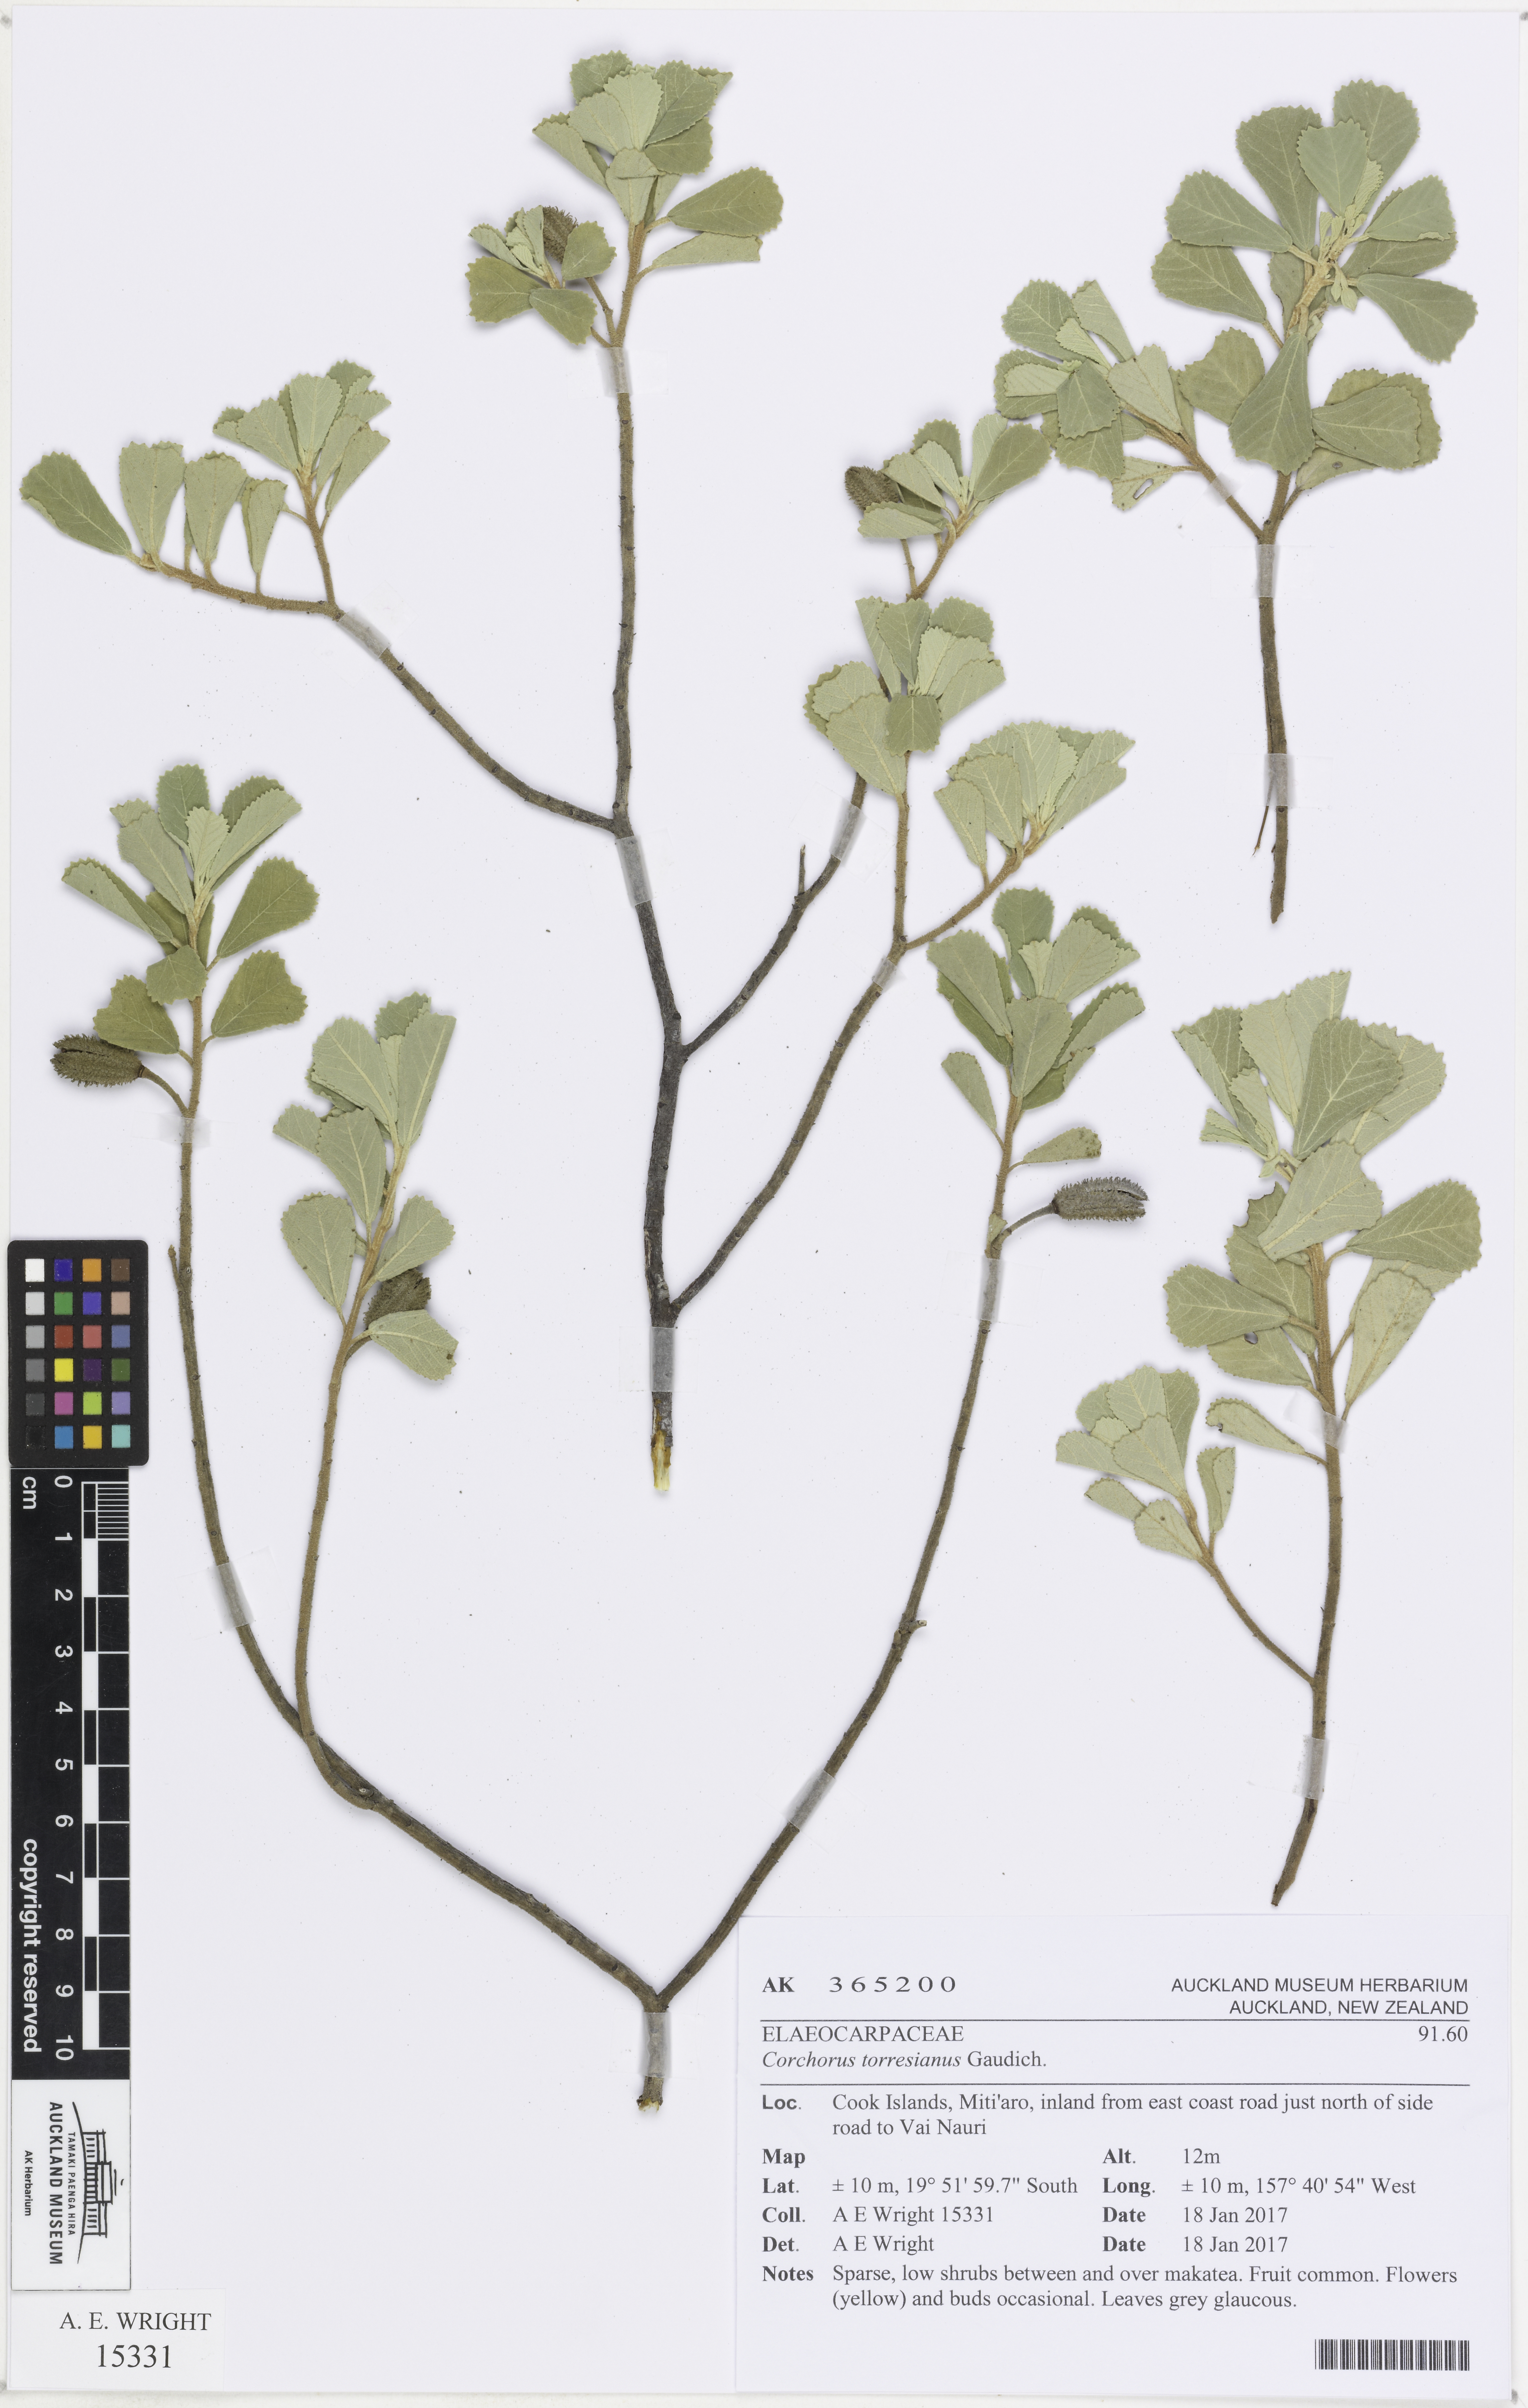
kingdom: Plantae
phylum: Tracheophyta
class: Magnoliopsida
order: Malvales
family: Malvaceae
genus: Corchorus
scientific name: Corchorus torresianus
